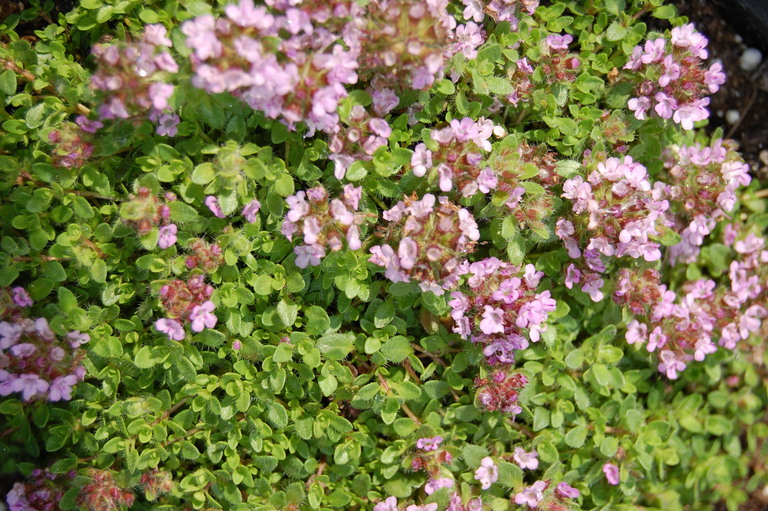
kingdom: Plantae
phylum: Tracheophyta
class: Magnoliopsida
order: Lamiales
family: Lamiaceae
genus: Thymus
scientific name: Thymus praecox
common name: Wild thyme
